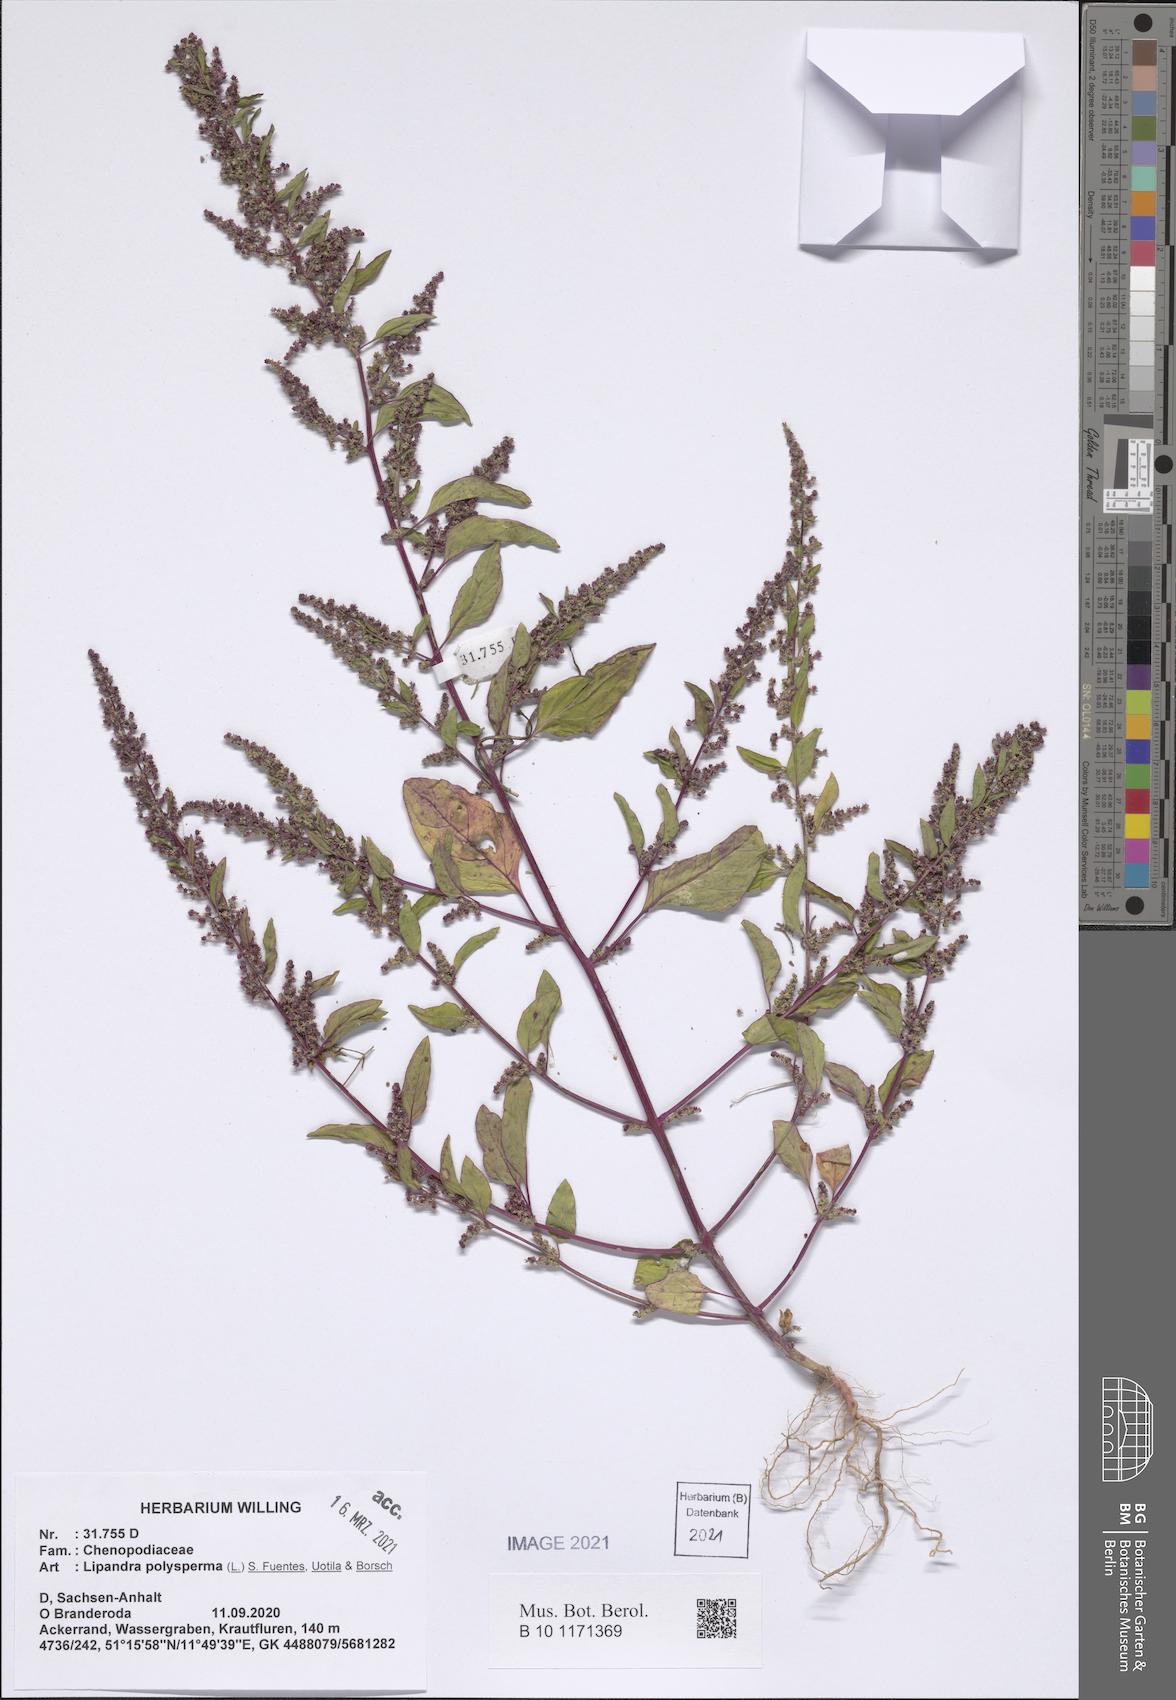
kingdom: Plantae
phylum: Tracheophyta
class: Magnoliopsida
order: Caryophyllales
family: Amaranthaceae
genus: Lipandra
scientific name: Lipandra polysperma
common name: Many-seed goosefoot
